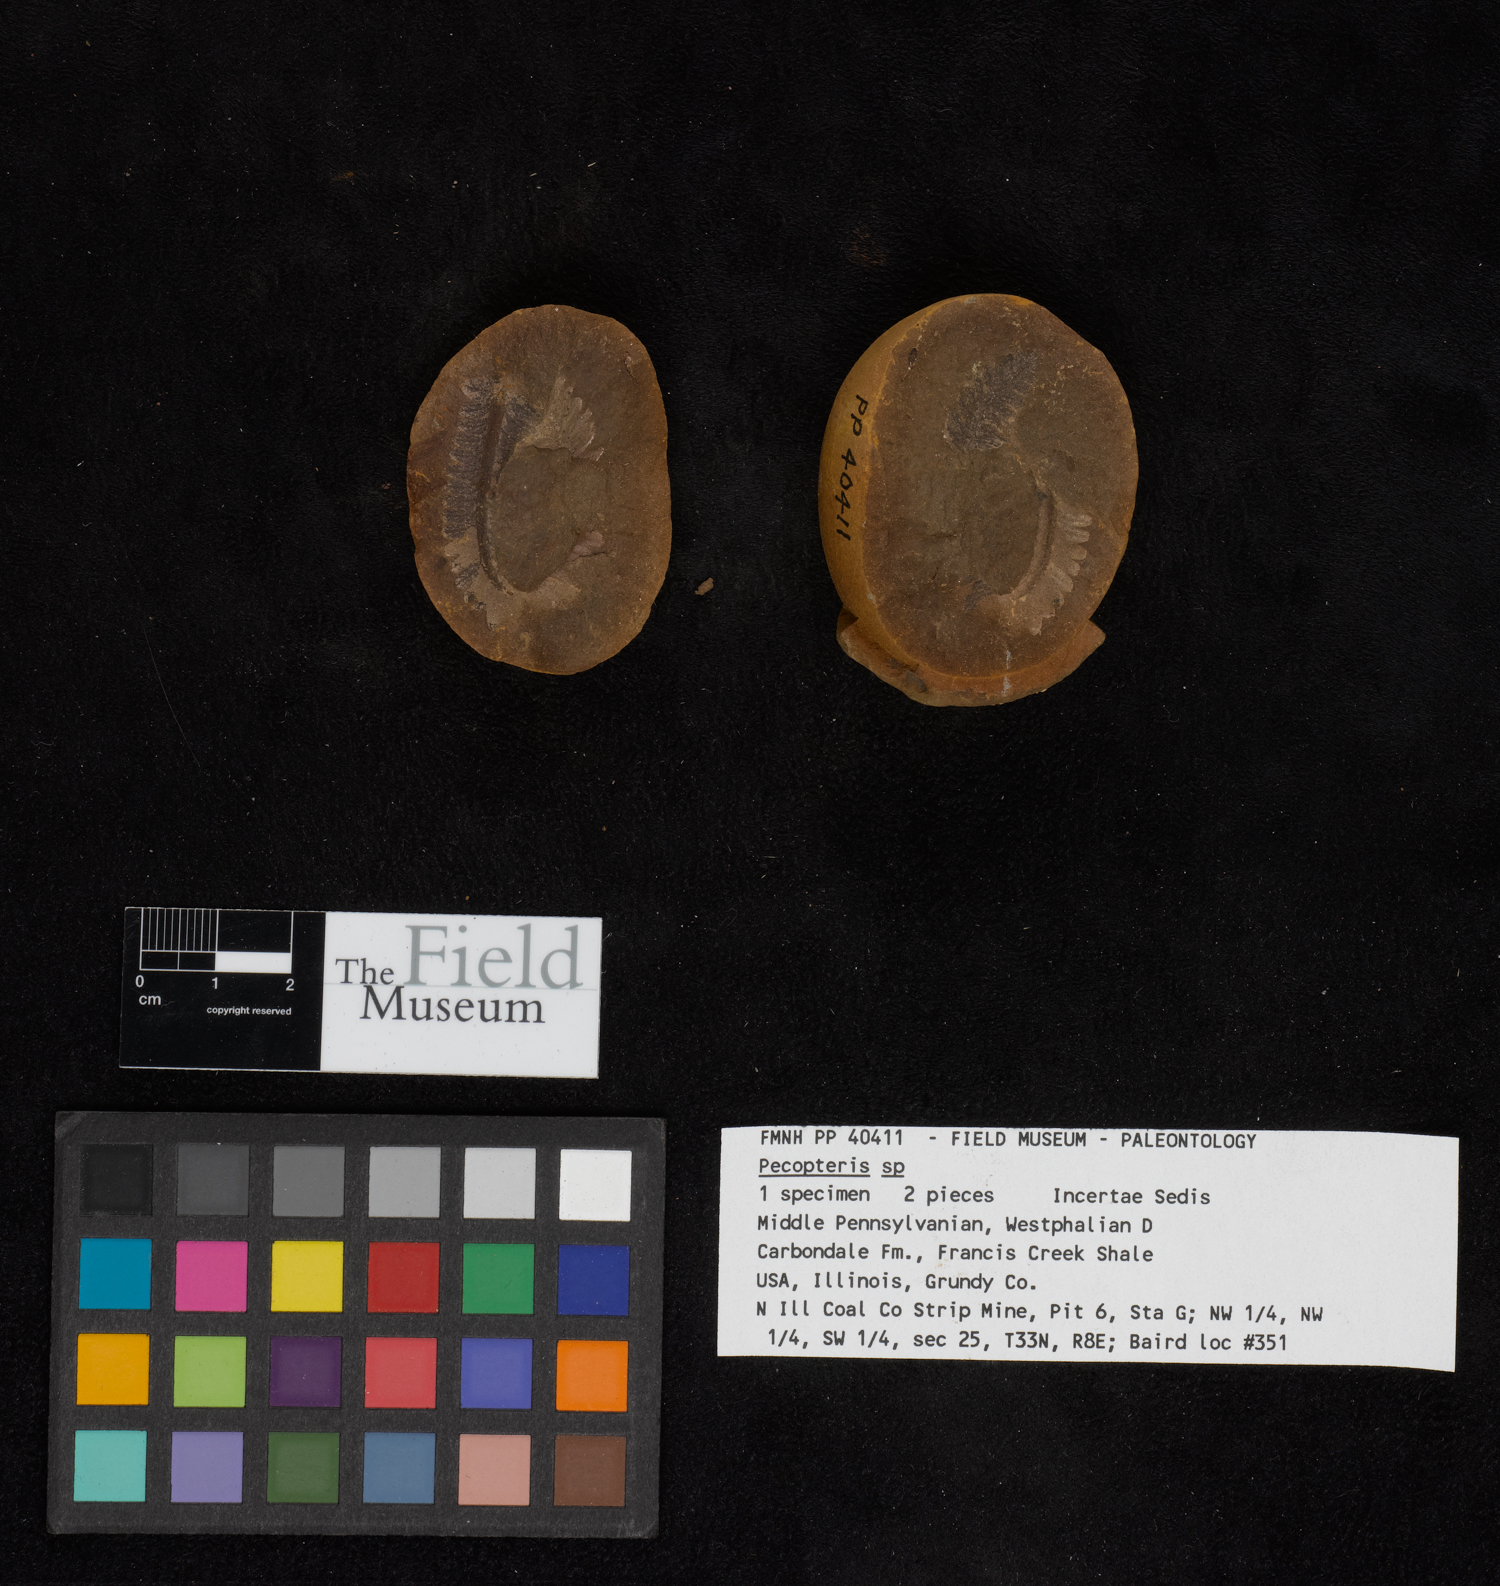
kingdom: Plantae
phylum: Tracheophyta
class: Polypodiopsida
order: Marattiales
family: Asterothecaceae
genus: Pecopteris
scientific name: Pecopteris
